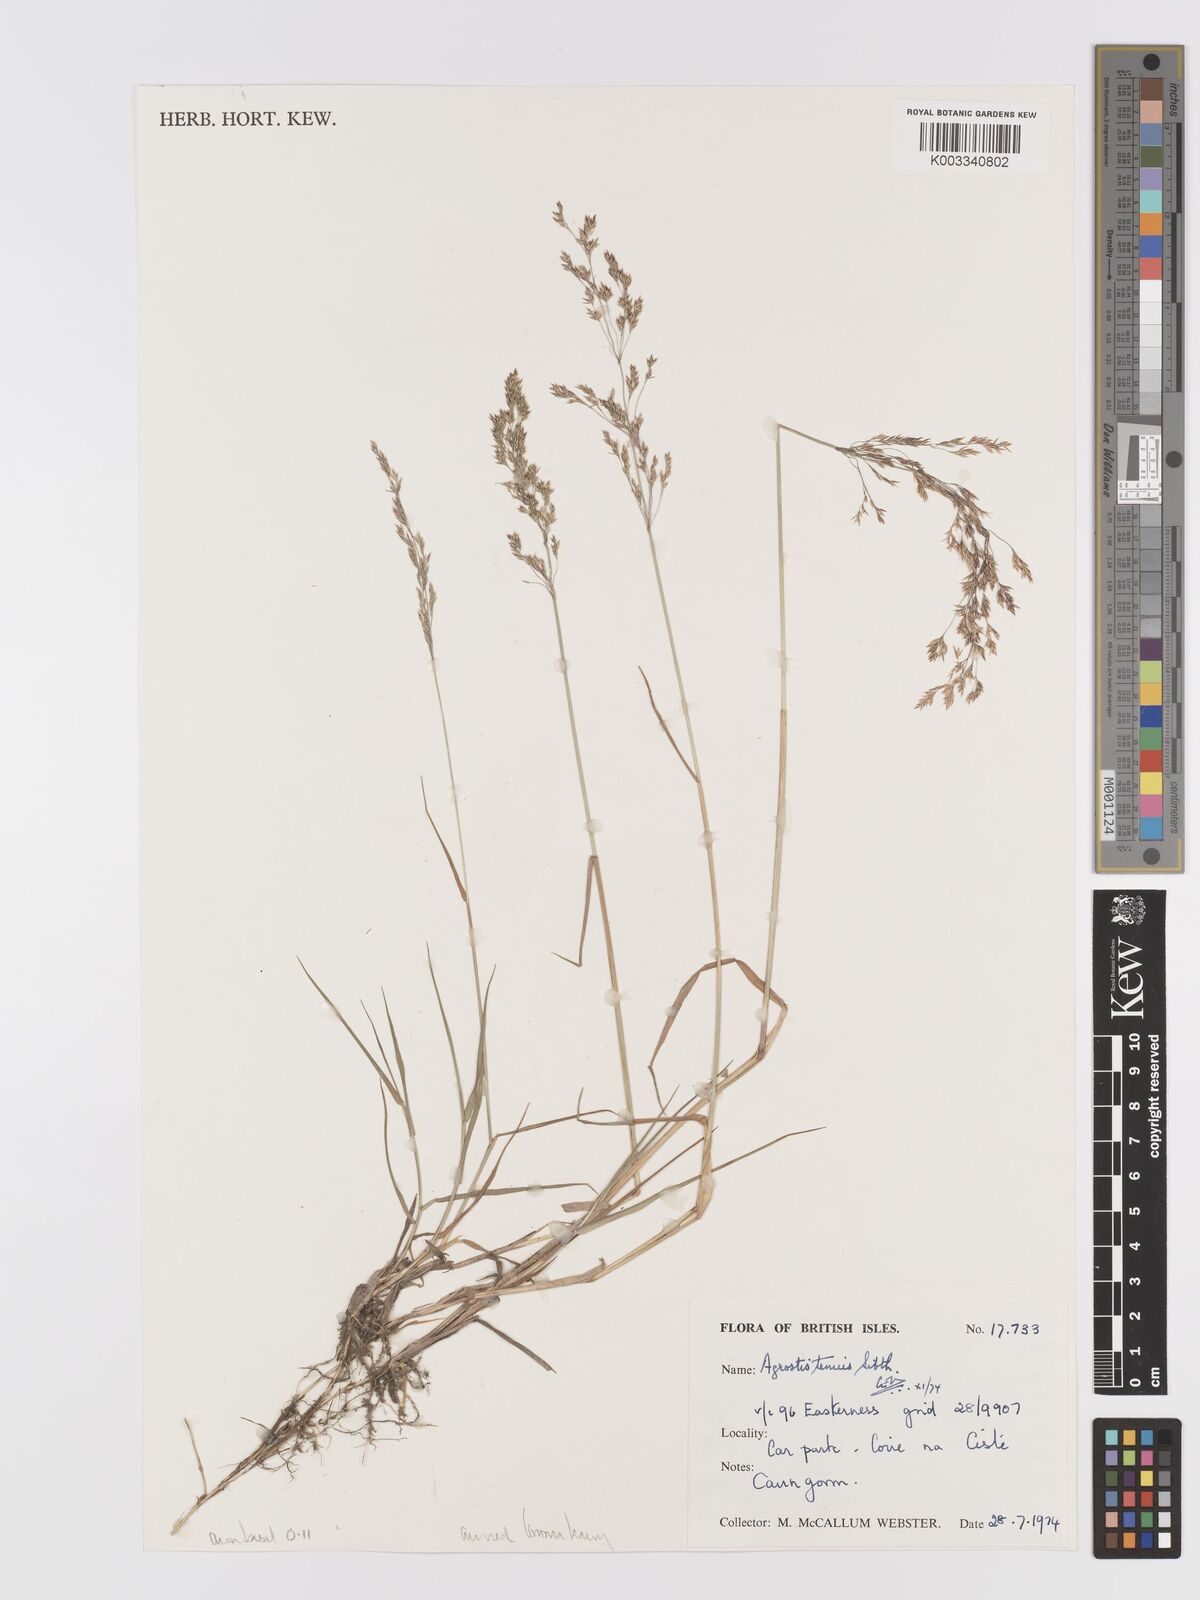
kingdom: Plantae
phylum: Tracheophyta
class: Liliopsida
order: Poales
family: Poaceae
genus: Agrostis
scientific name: Agrostis capillaris
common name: Colonial bentgrass
